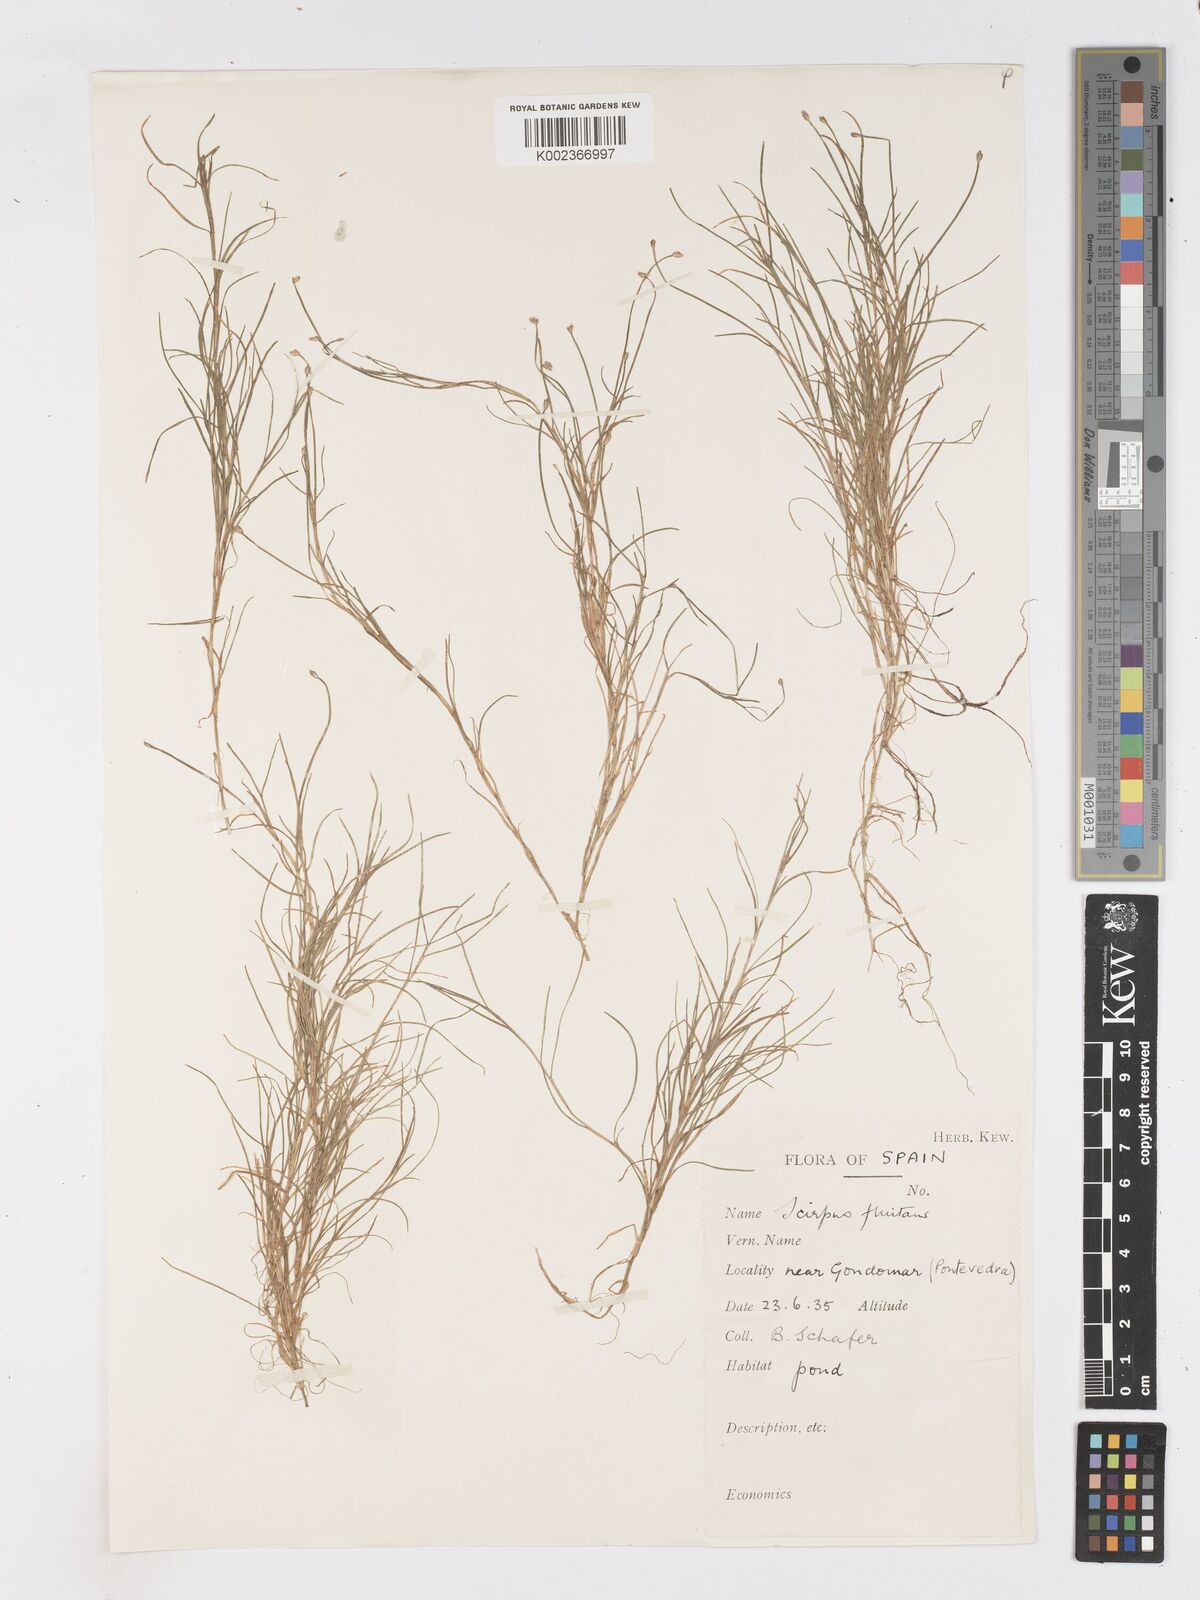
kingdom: Plantae
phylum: Tracheophyta
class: Liliopsida
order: Poales
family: Cyperaceae
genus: Isolepis
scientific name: Isolepis fluitans
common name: Floating club-rush
